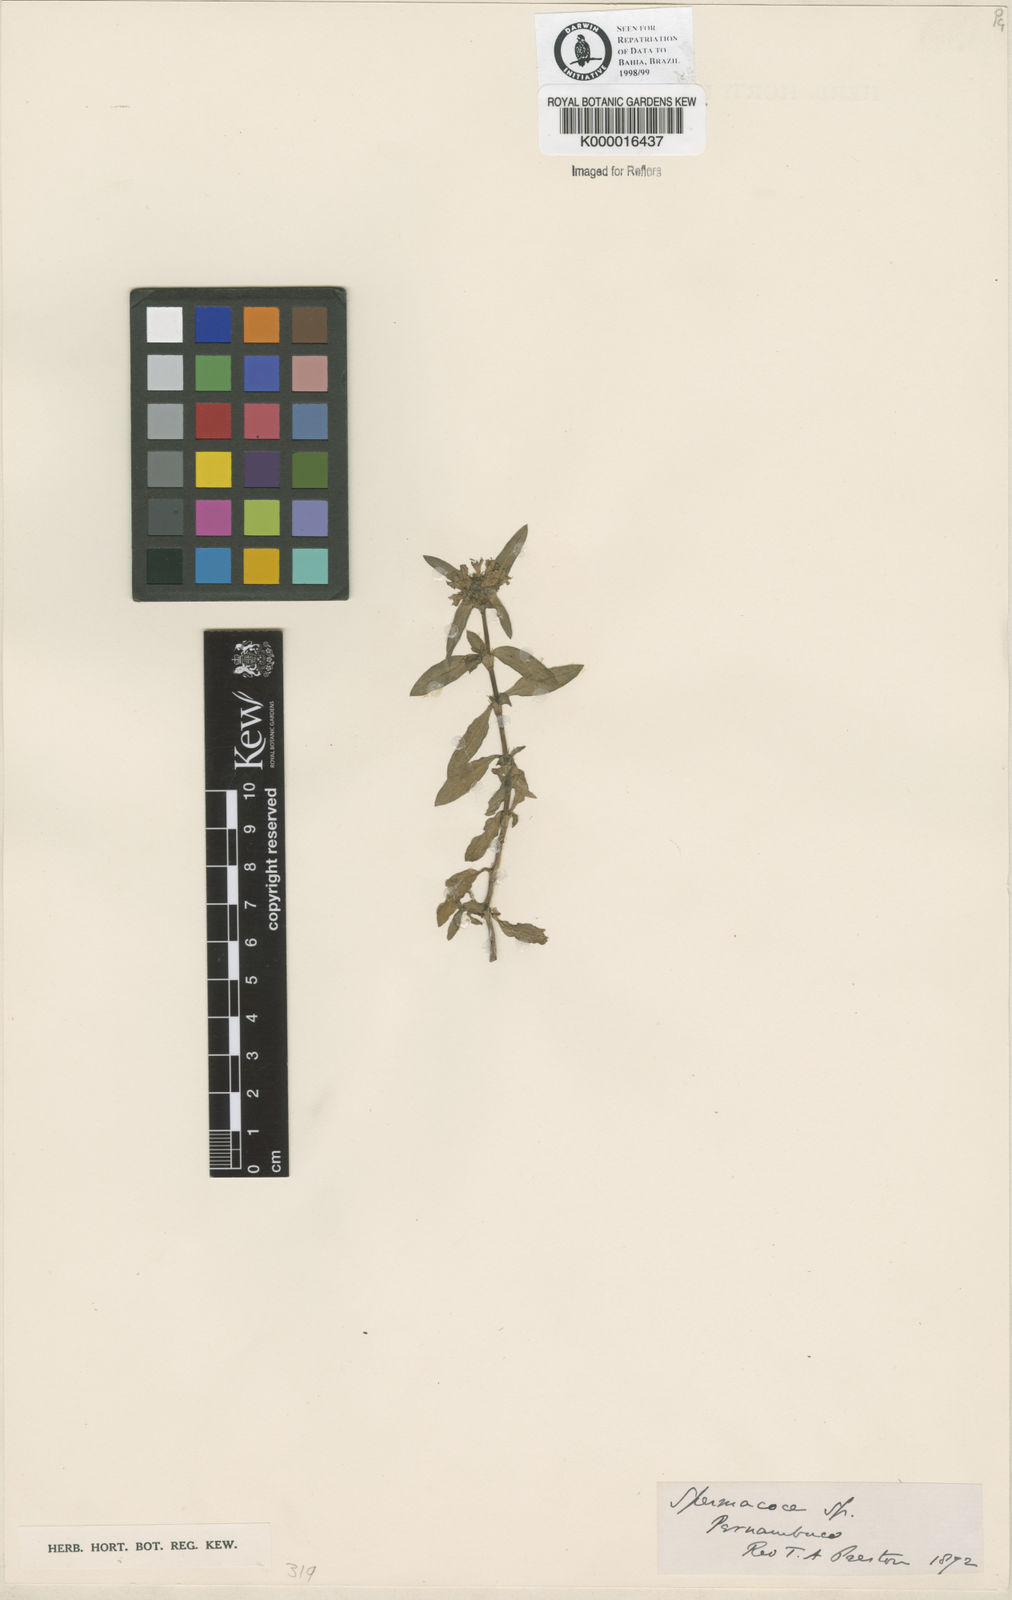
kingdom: Plantae
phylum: Tracheophyta
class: Magnoliopsida
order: Gentianales
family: Rubiaceae
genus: Spermacoce
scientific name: Spermacoce
